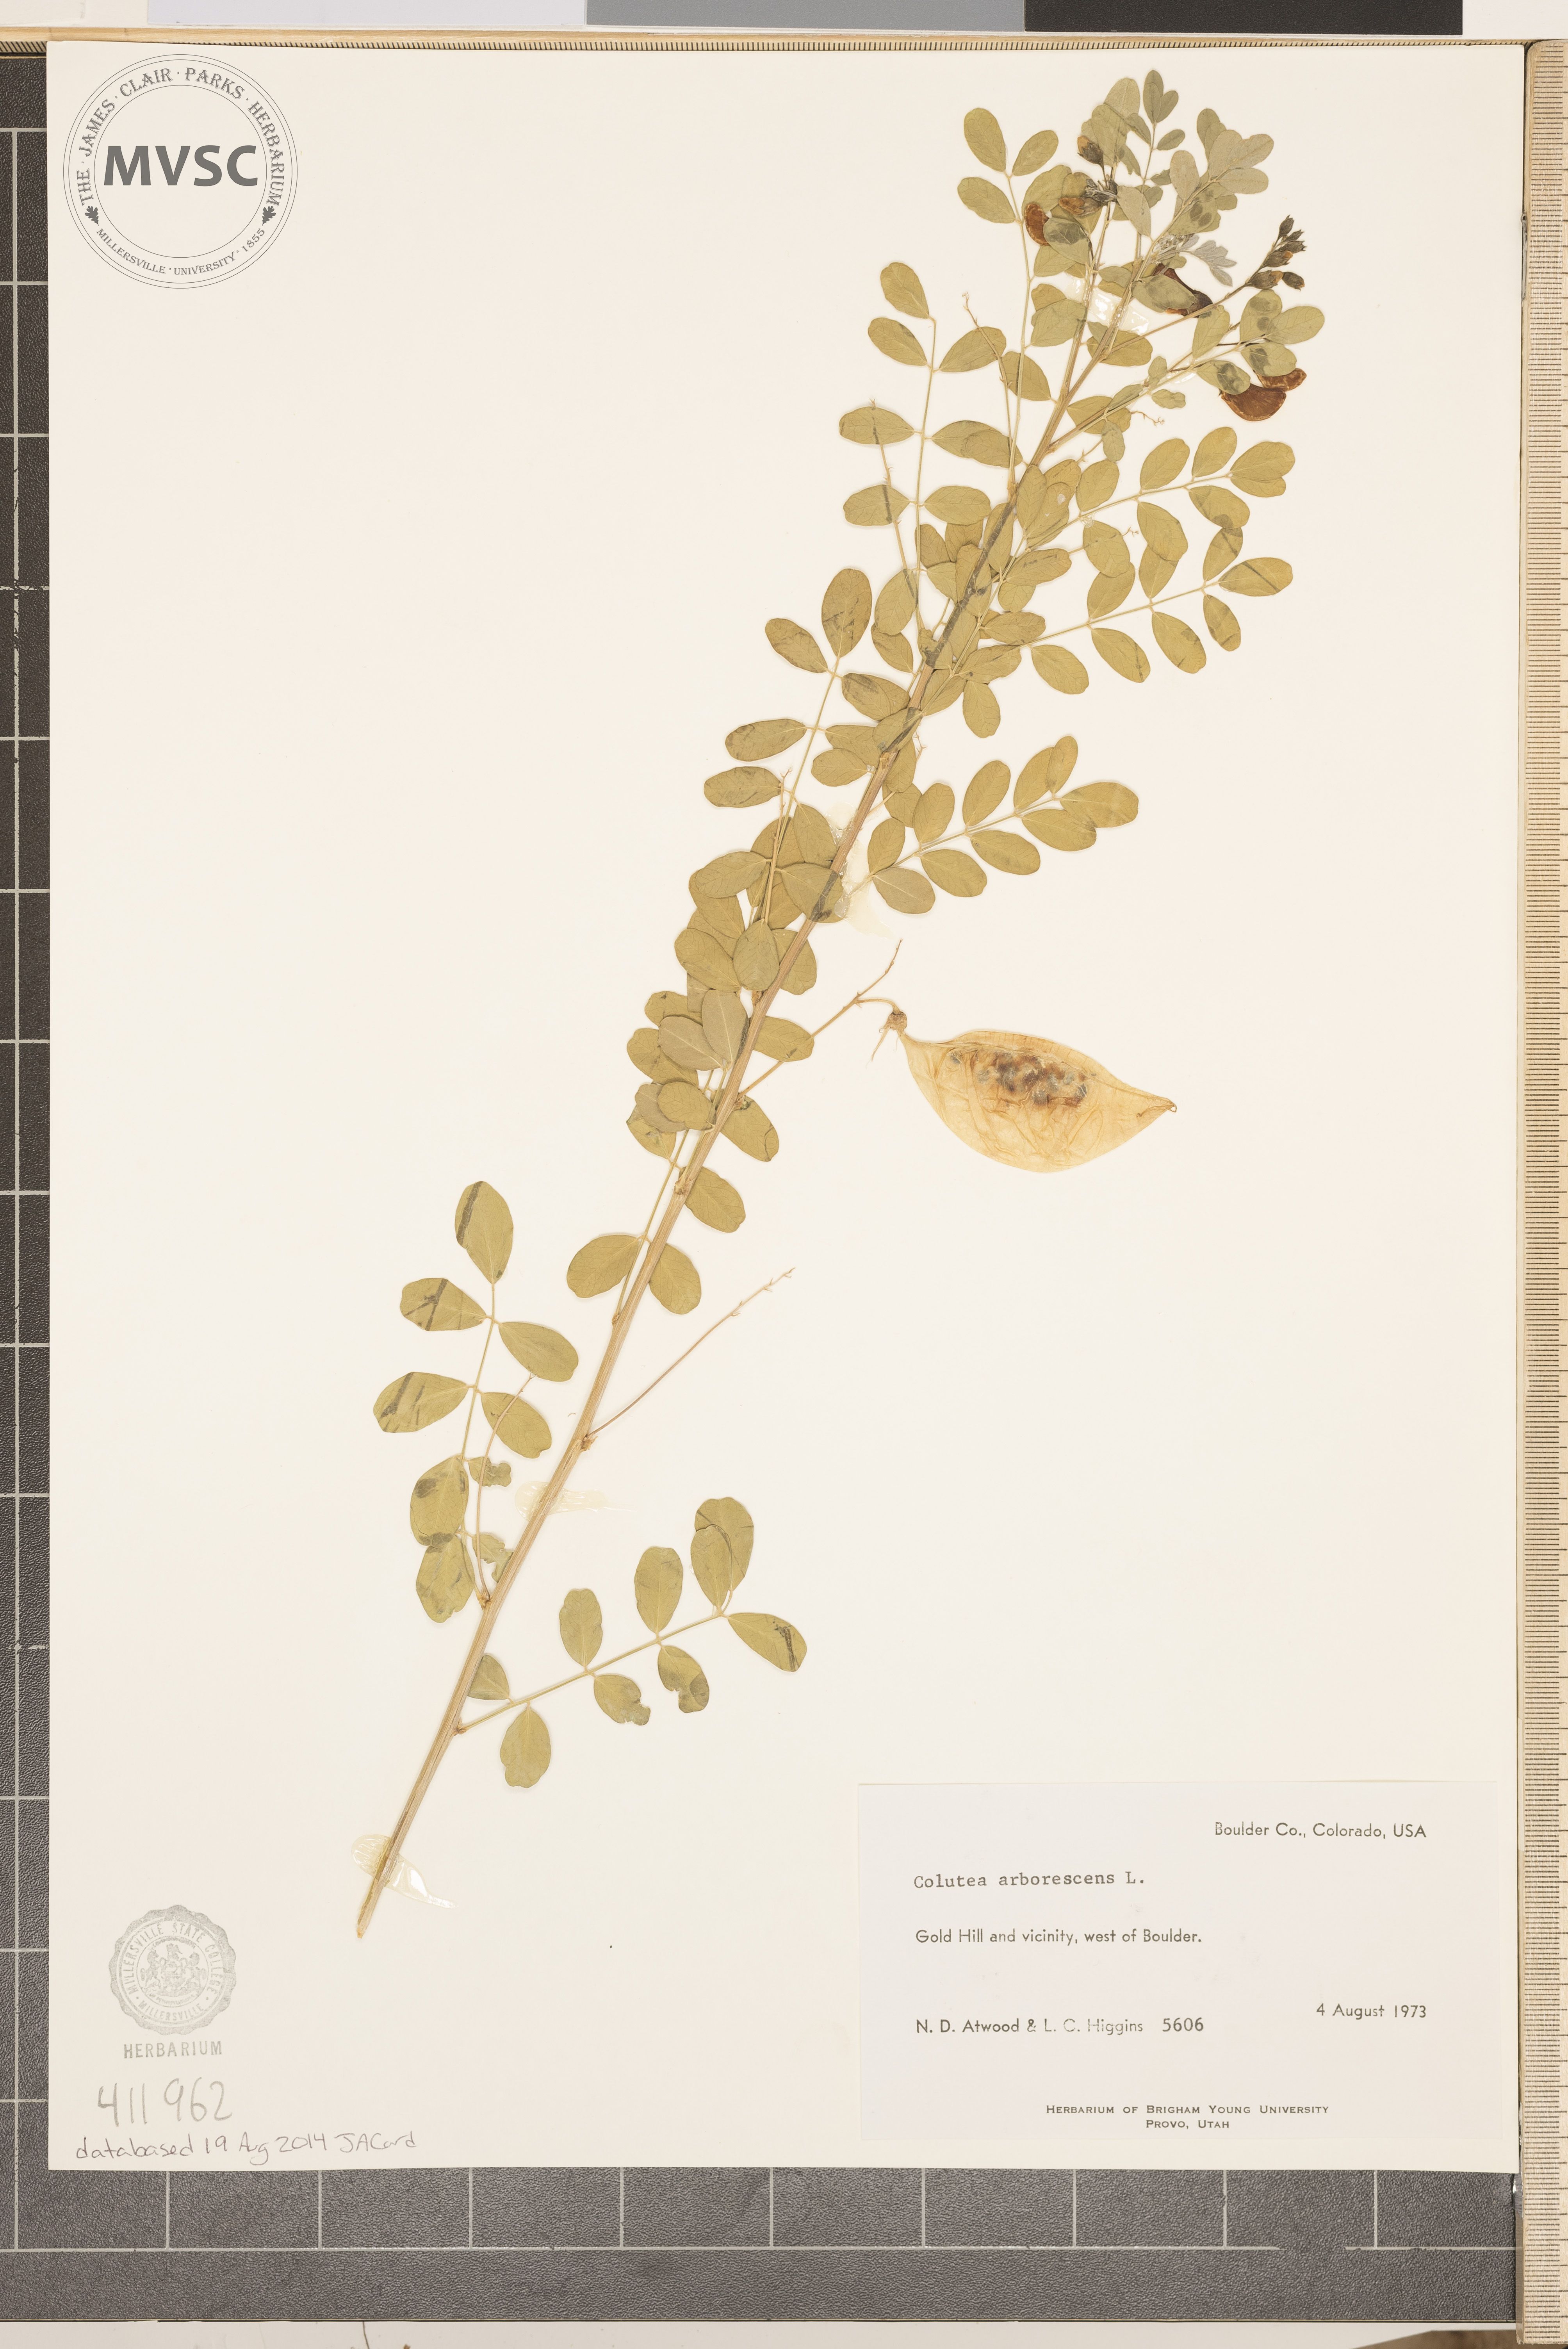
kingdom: Plantae
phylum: Tracheophyta
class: Magnoliopsida
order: Fabales
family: Fabaceae
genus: Colutea
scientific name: Colutea arborescens
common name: Bladder-senna
